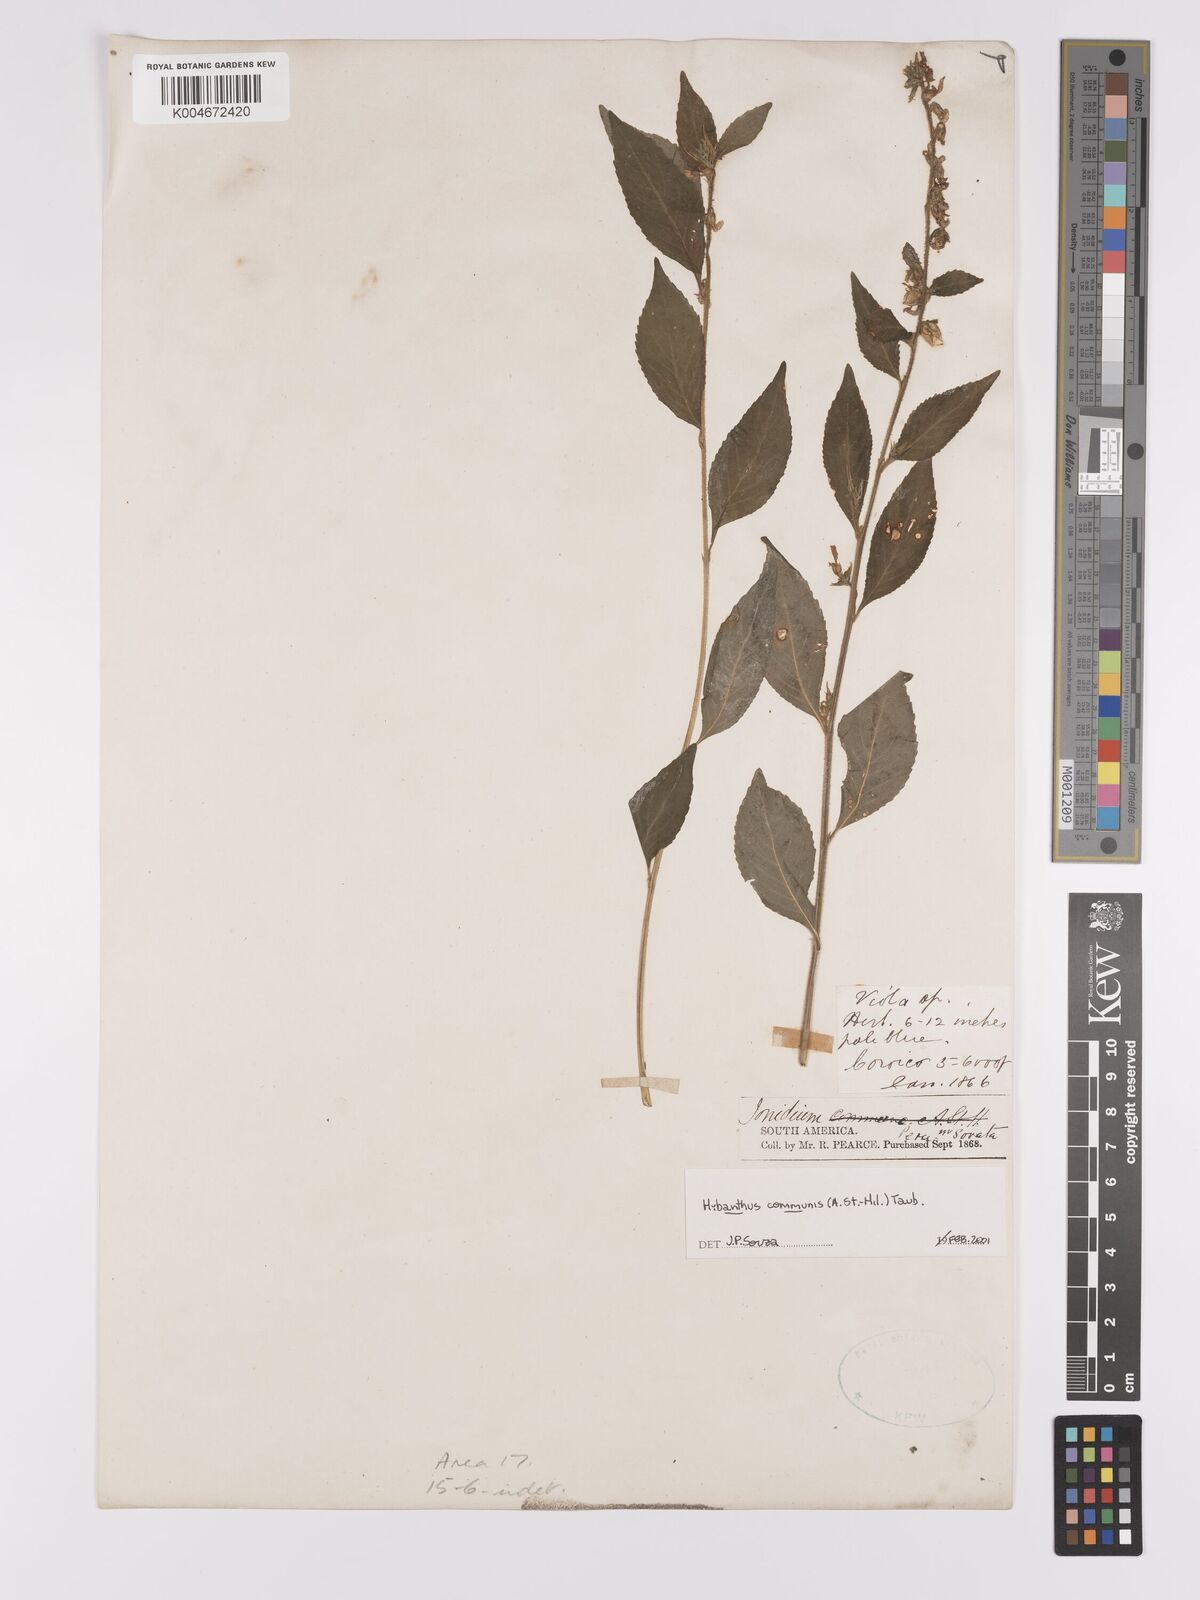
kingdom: Plantae
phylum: Tracheophyta
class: Magnoliopsida
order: Malpighiales
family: Violaceae
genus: Pombalia
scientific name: Pombalia communis
